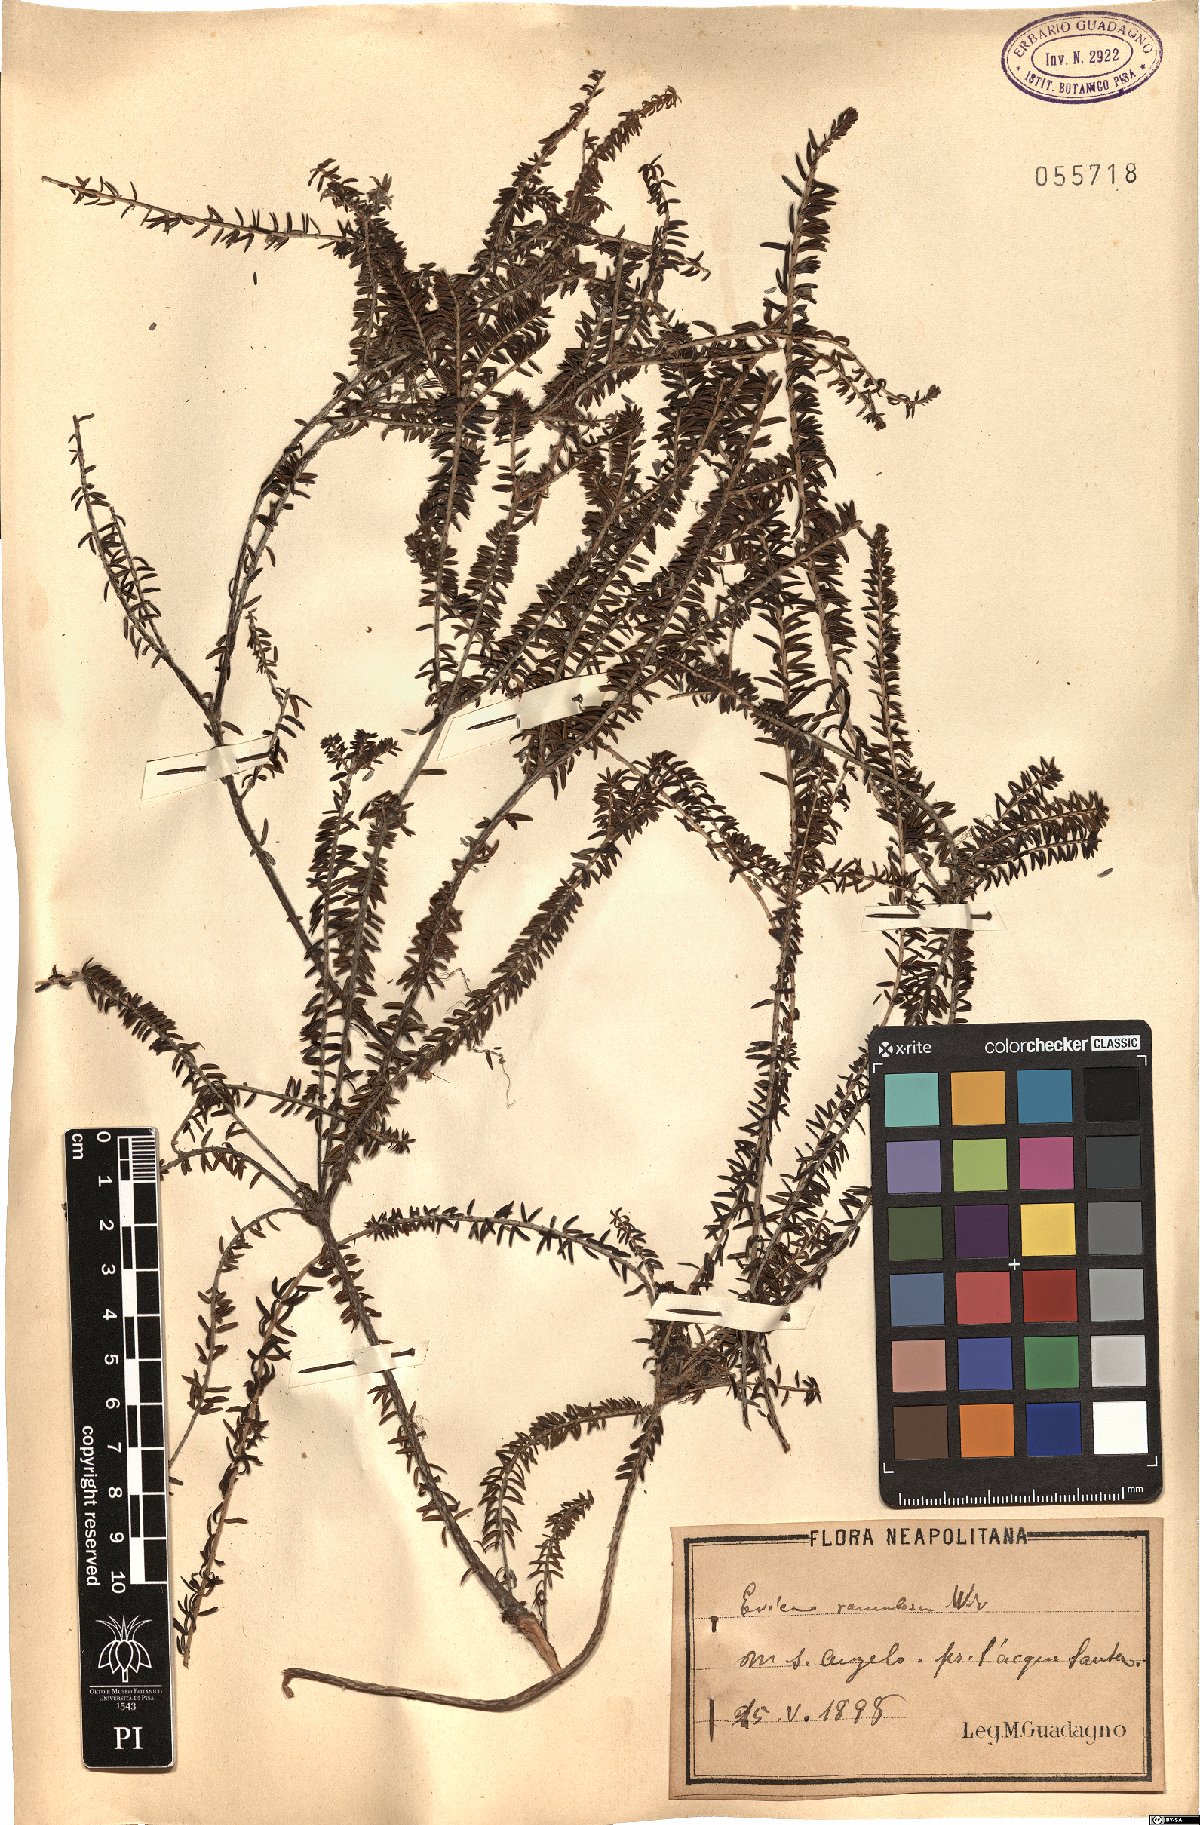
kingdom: Plantae
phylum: Tracheophyta
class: Magnoliopsida
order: Ericales
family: Ericaceae
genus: Erica
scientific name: Erica imbricata
